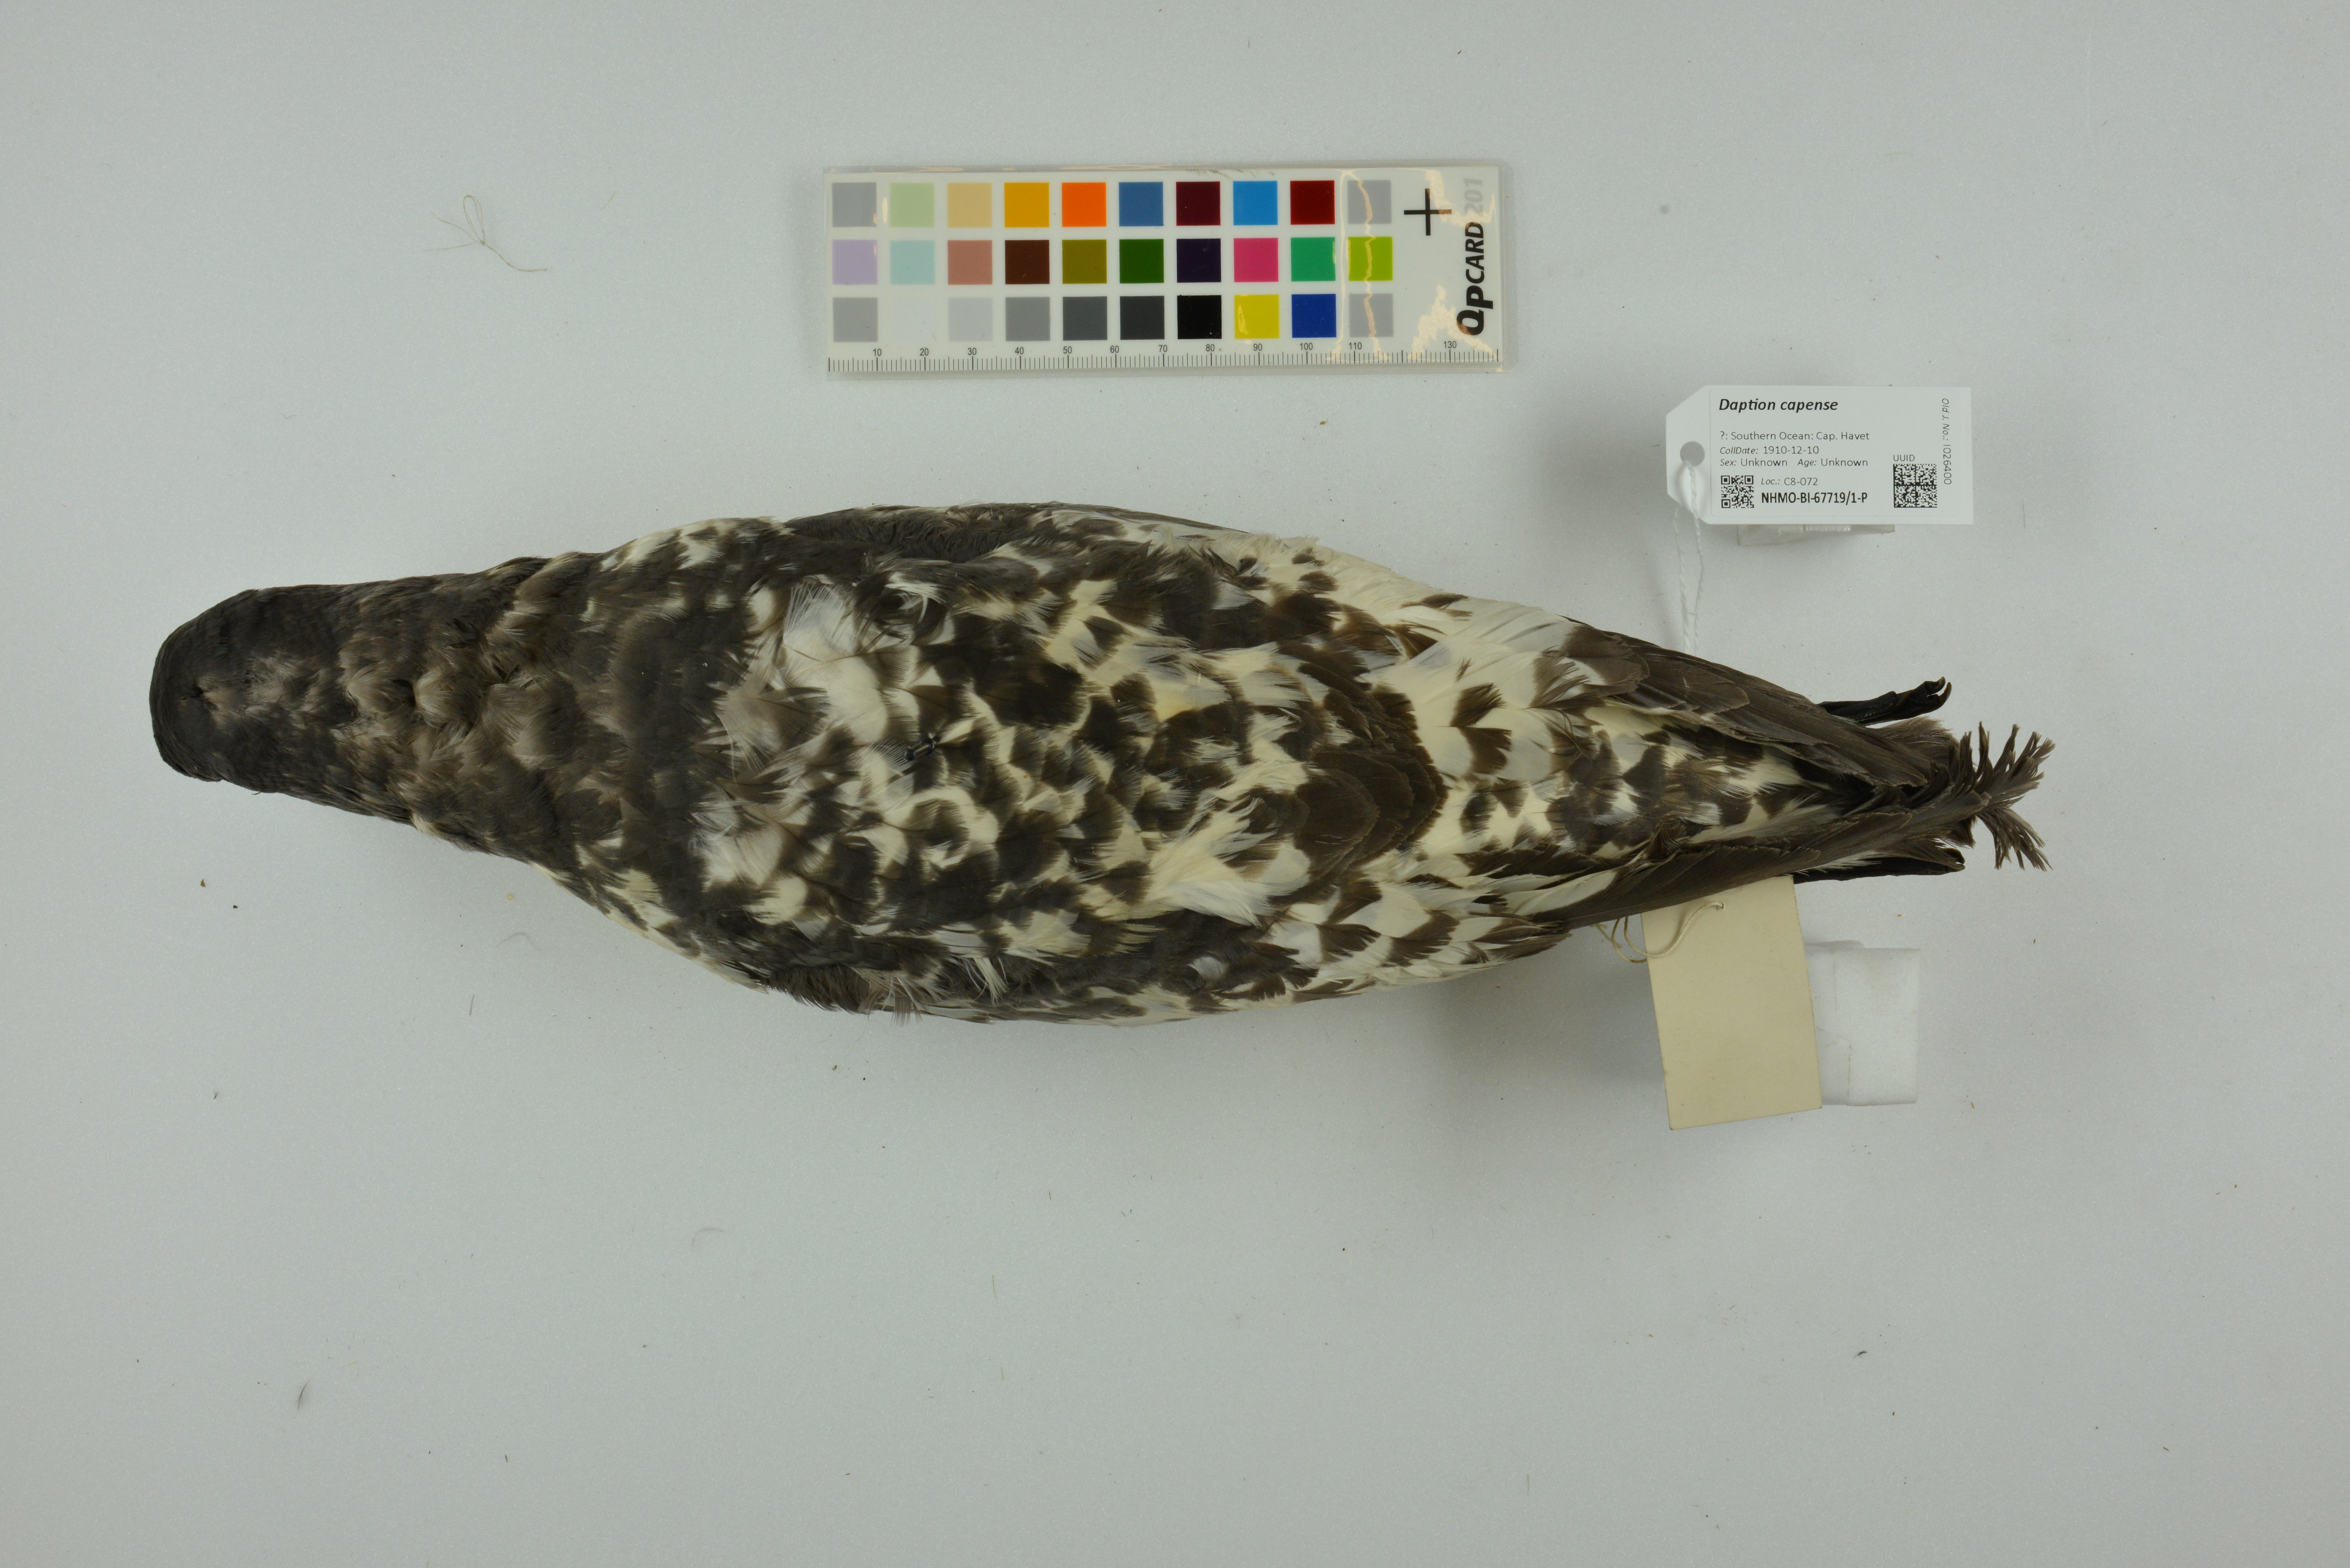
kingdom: Animalia
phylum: Chordata
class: Aves
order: Procellariiformes
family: Procellariidae
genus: Daption
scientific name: Daption capense
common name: Cape petrel
